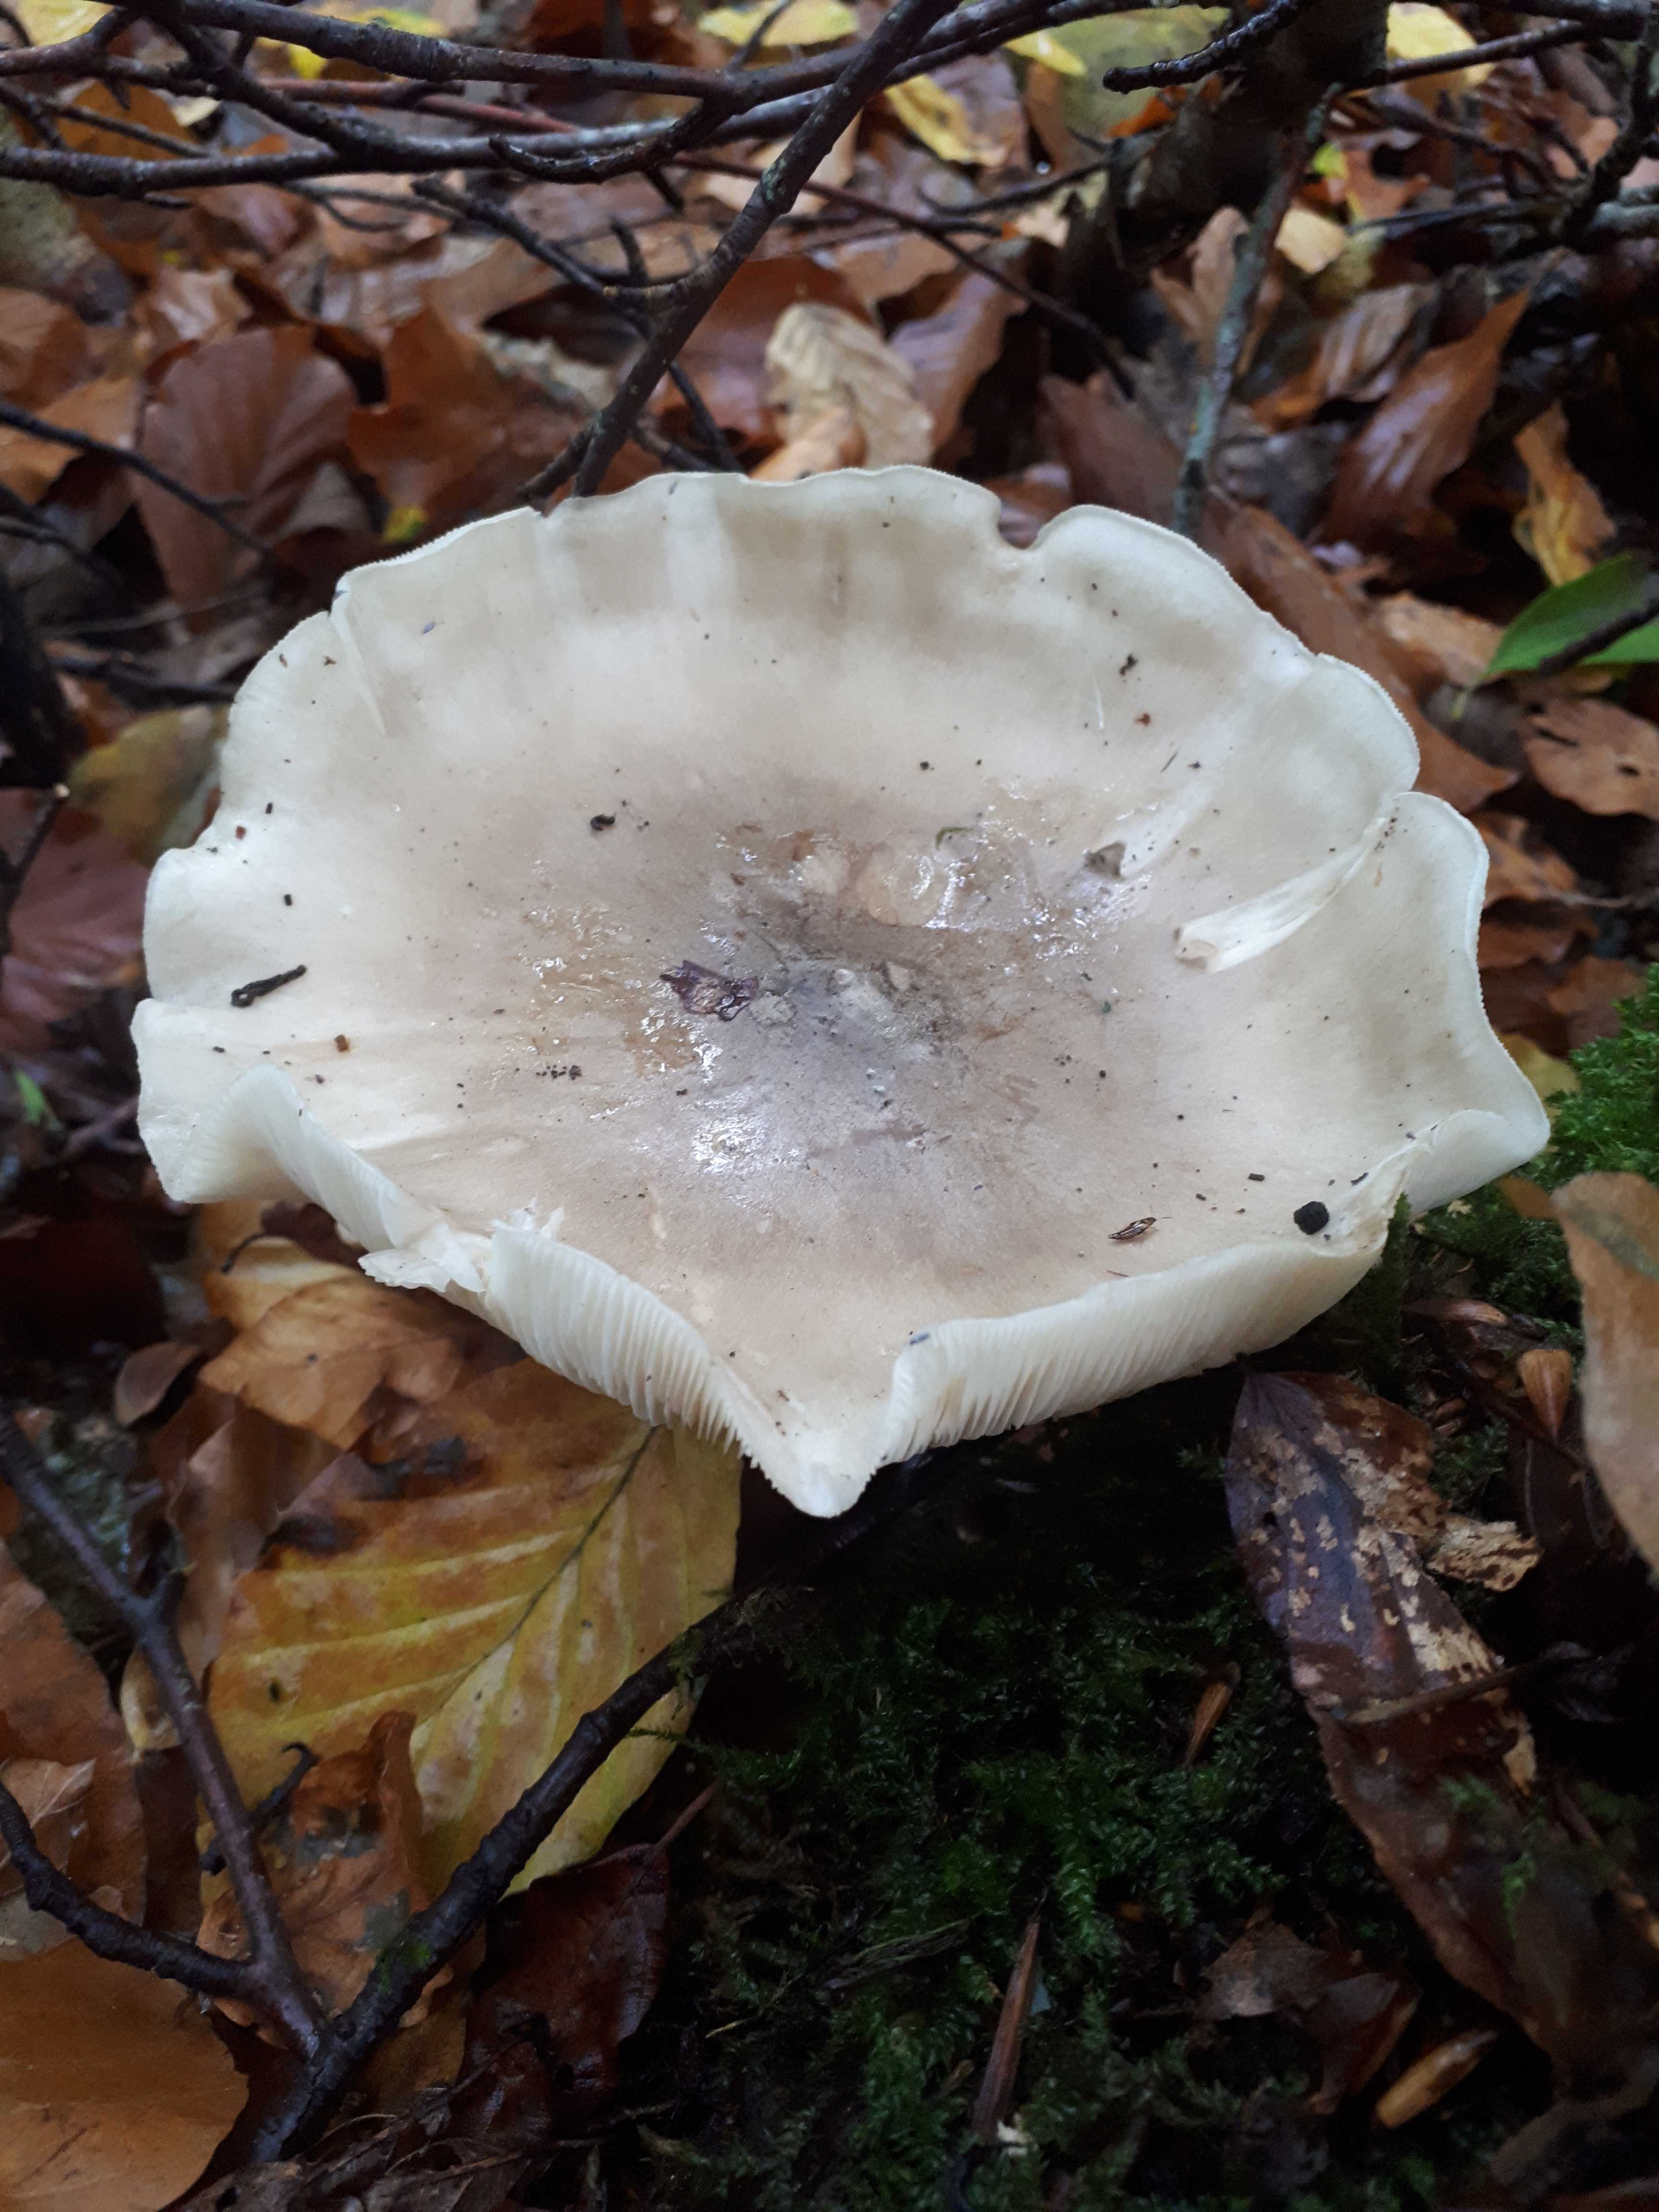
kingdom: Fungi
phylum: Basidiomycota
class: Agaricomycetes
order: Agaricales
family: Tricholomataceae
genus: Clitocybe
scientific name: Clitocybe nebularis
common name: tåge-tragthat
